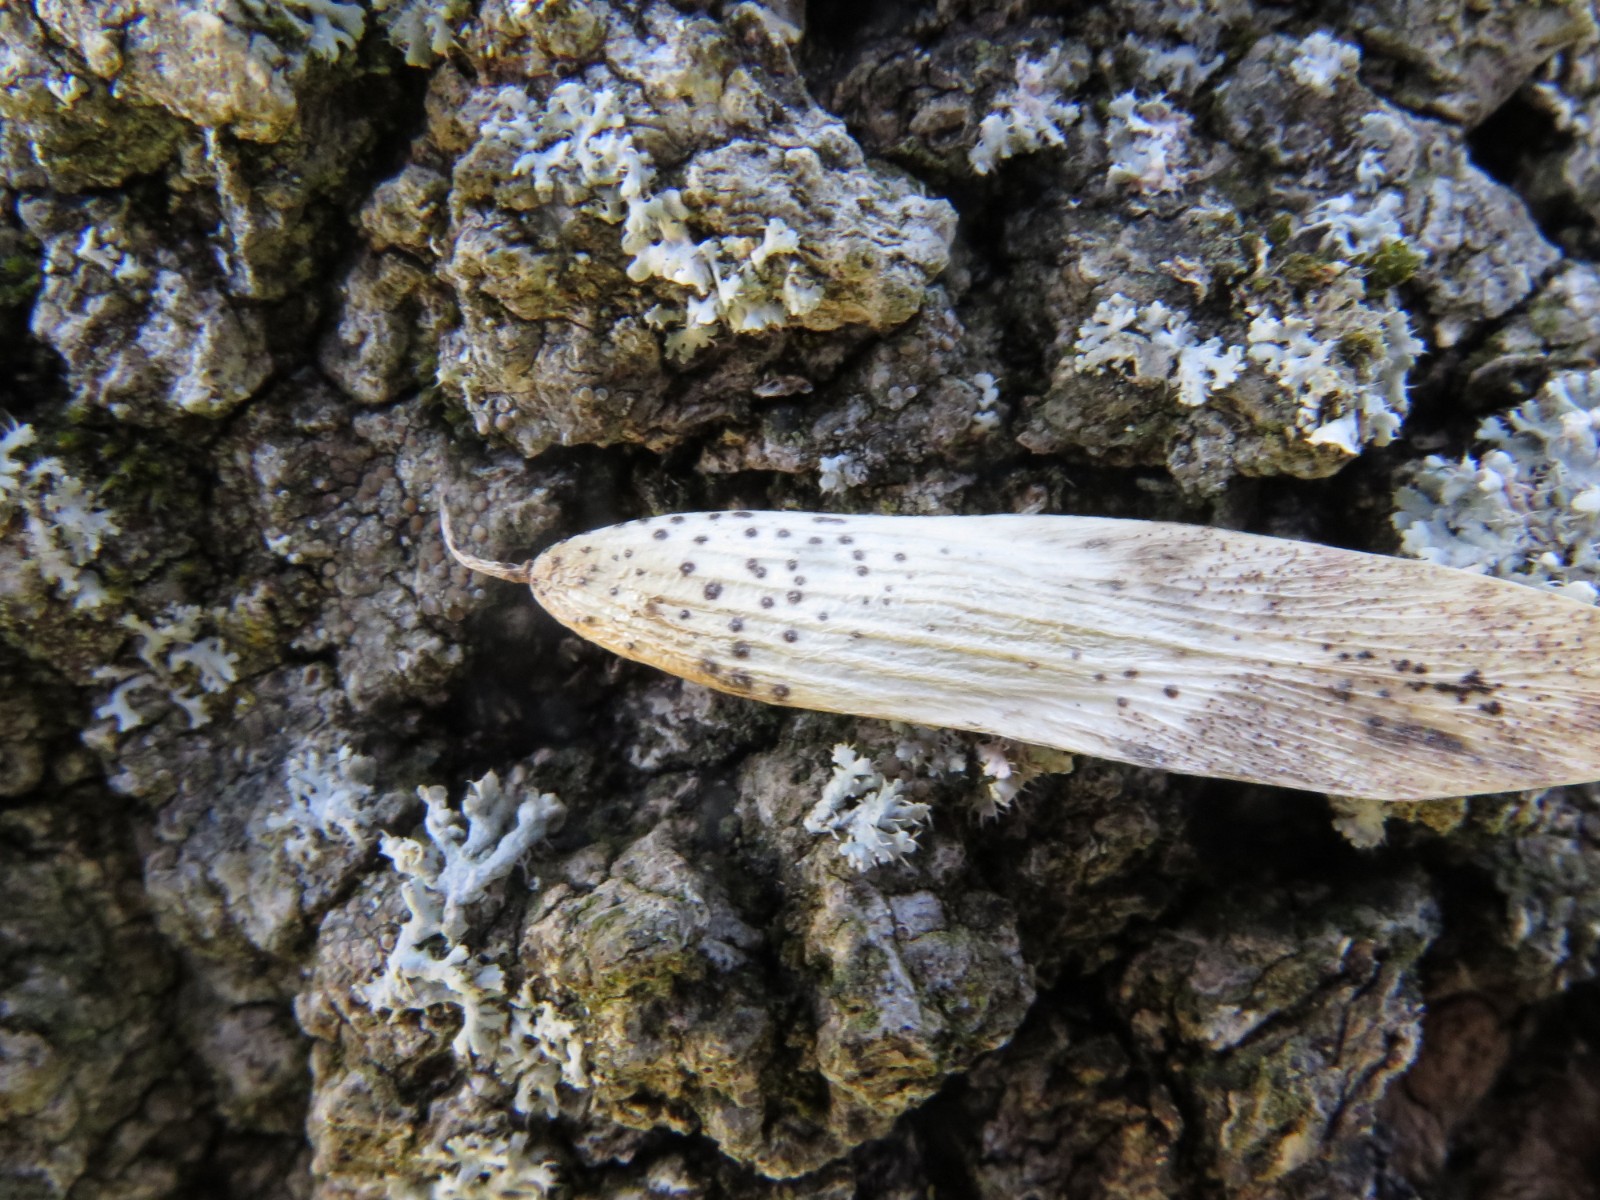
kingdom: Fungi
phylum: Ascomycota
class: Sordariomycetes
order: Diaporthales
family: Diaporthaceae
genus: Diaporthe
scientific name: Diaporthe samaricola
